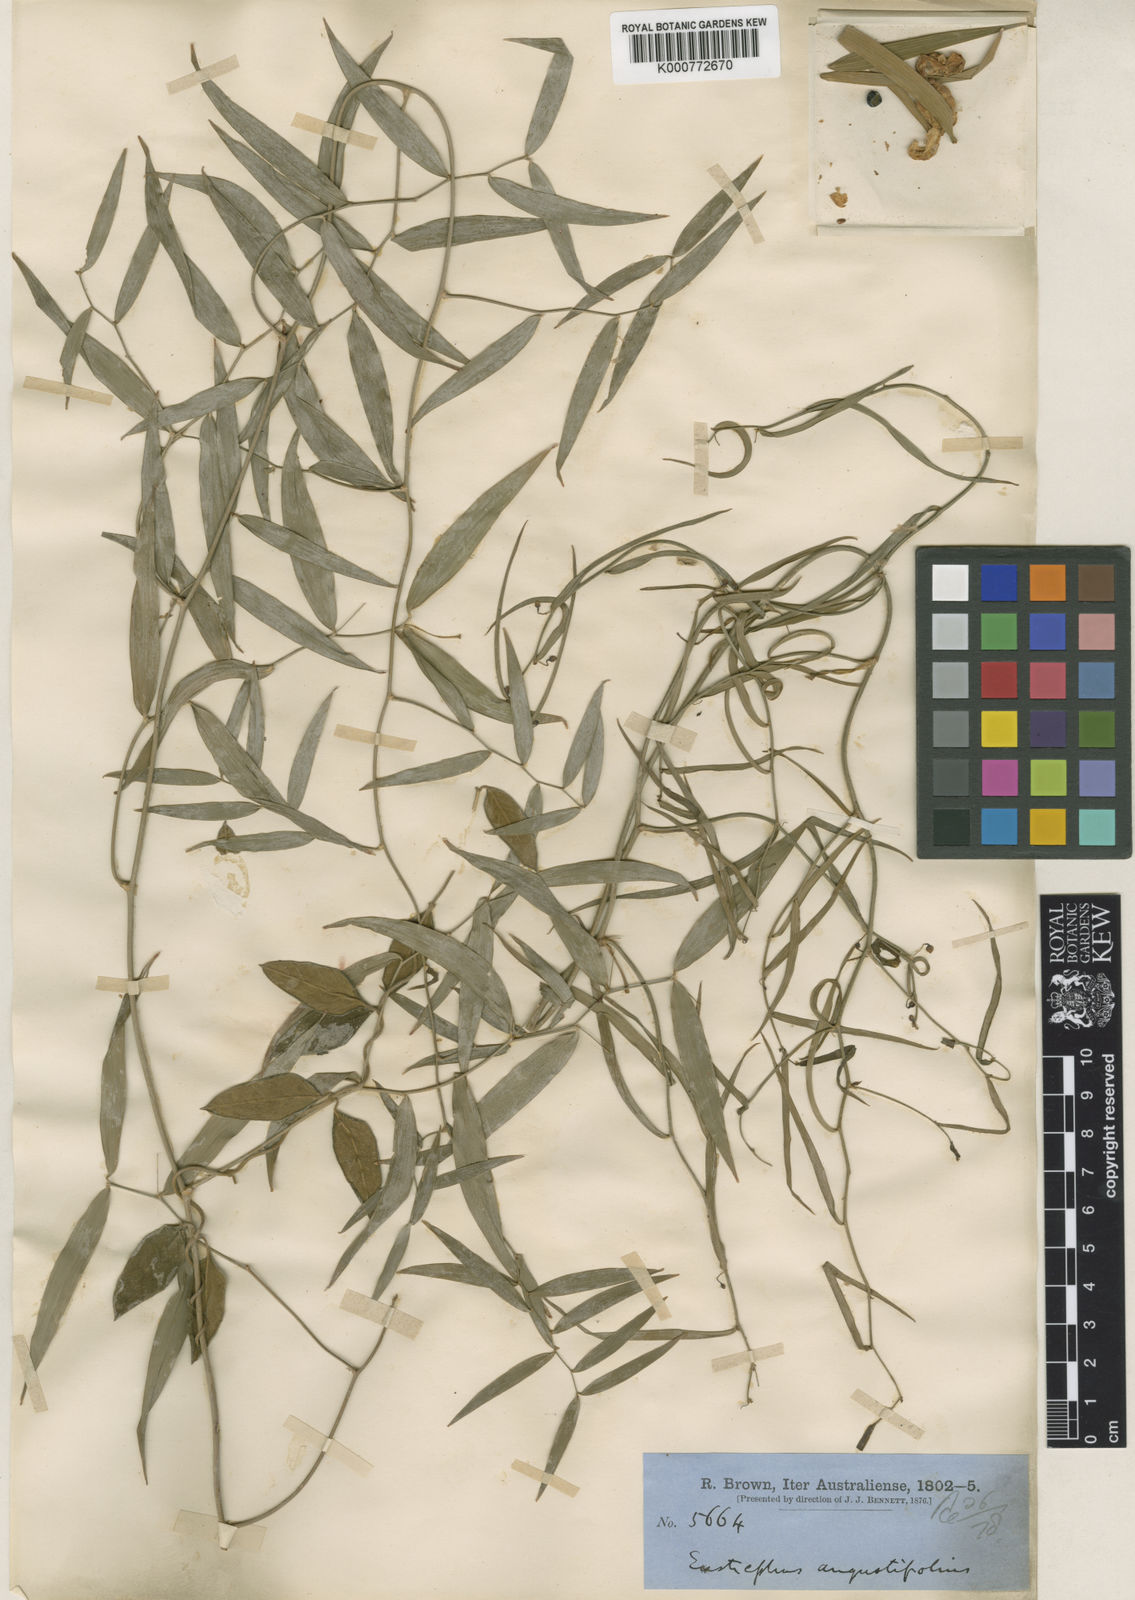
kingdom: Plantae
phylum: Tracheophyta
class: Liliopsida
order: Asparagales
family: Asparagaceae
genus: Eustrephus
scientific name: Eustrephus latifolius
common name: Orangevine
